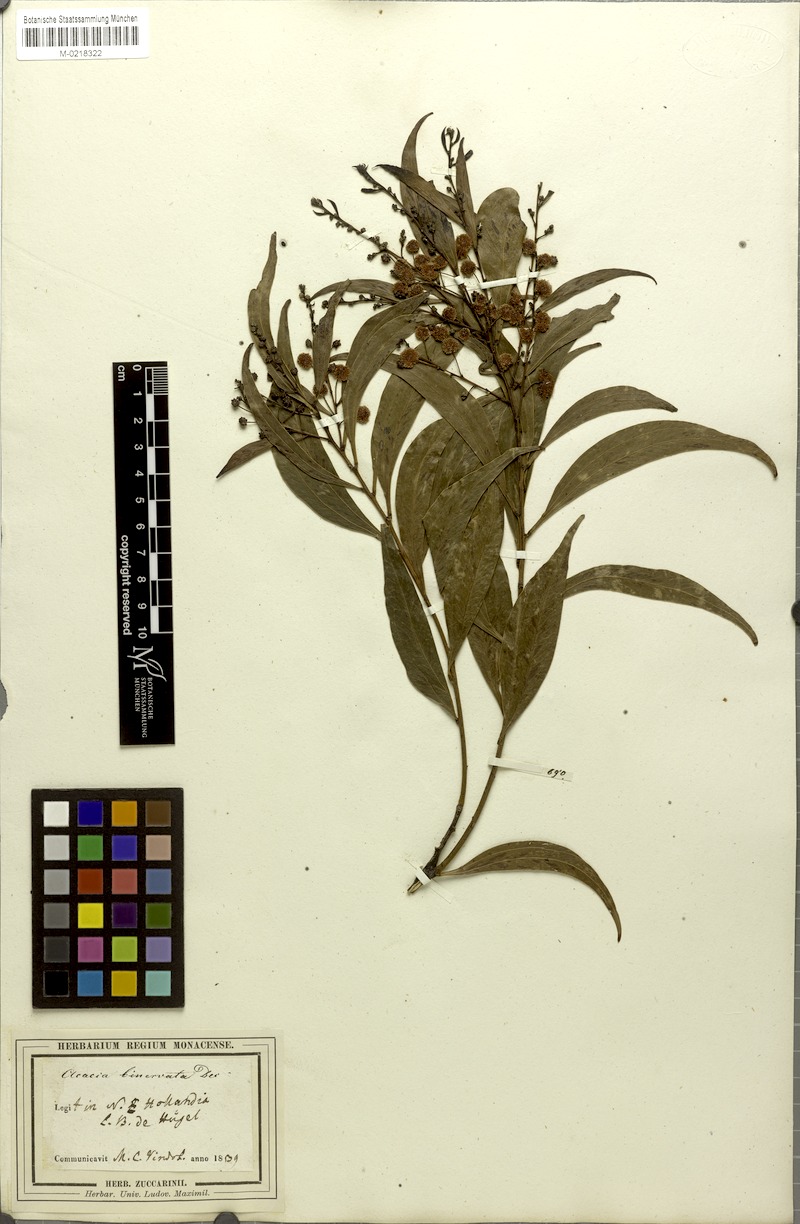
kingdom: Plantae
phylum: Tracheophyta
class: Magnoliopsida
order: Fabales
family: Fabaceae
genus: Acacia
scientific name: Acacia binervata
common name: Two-veined hickory
